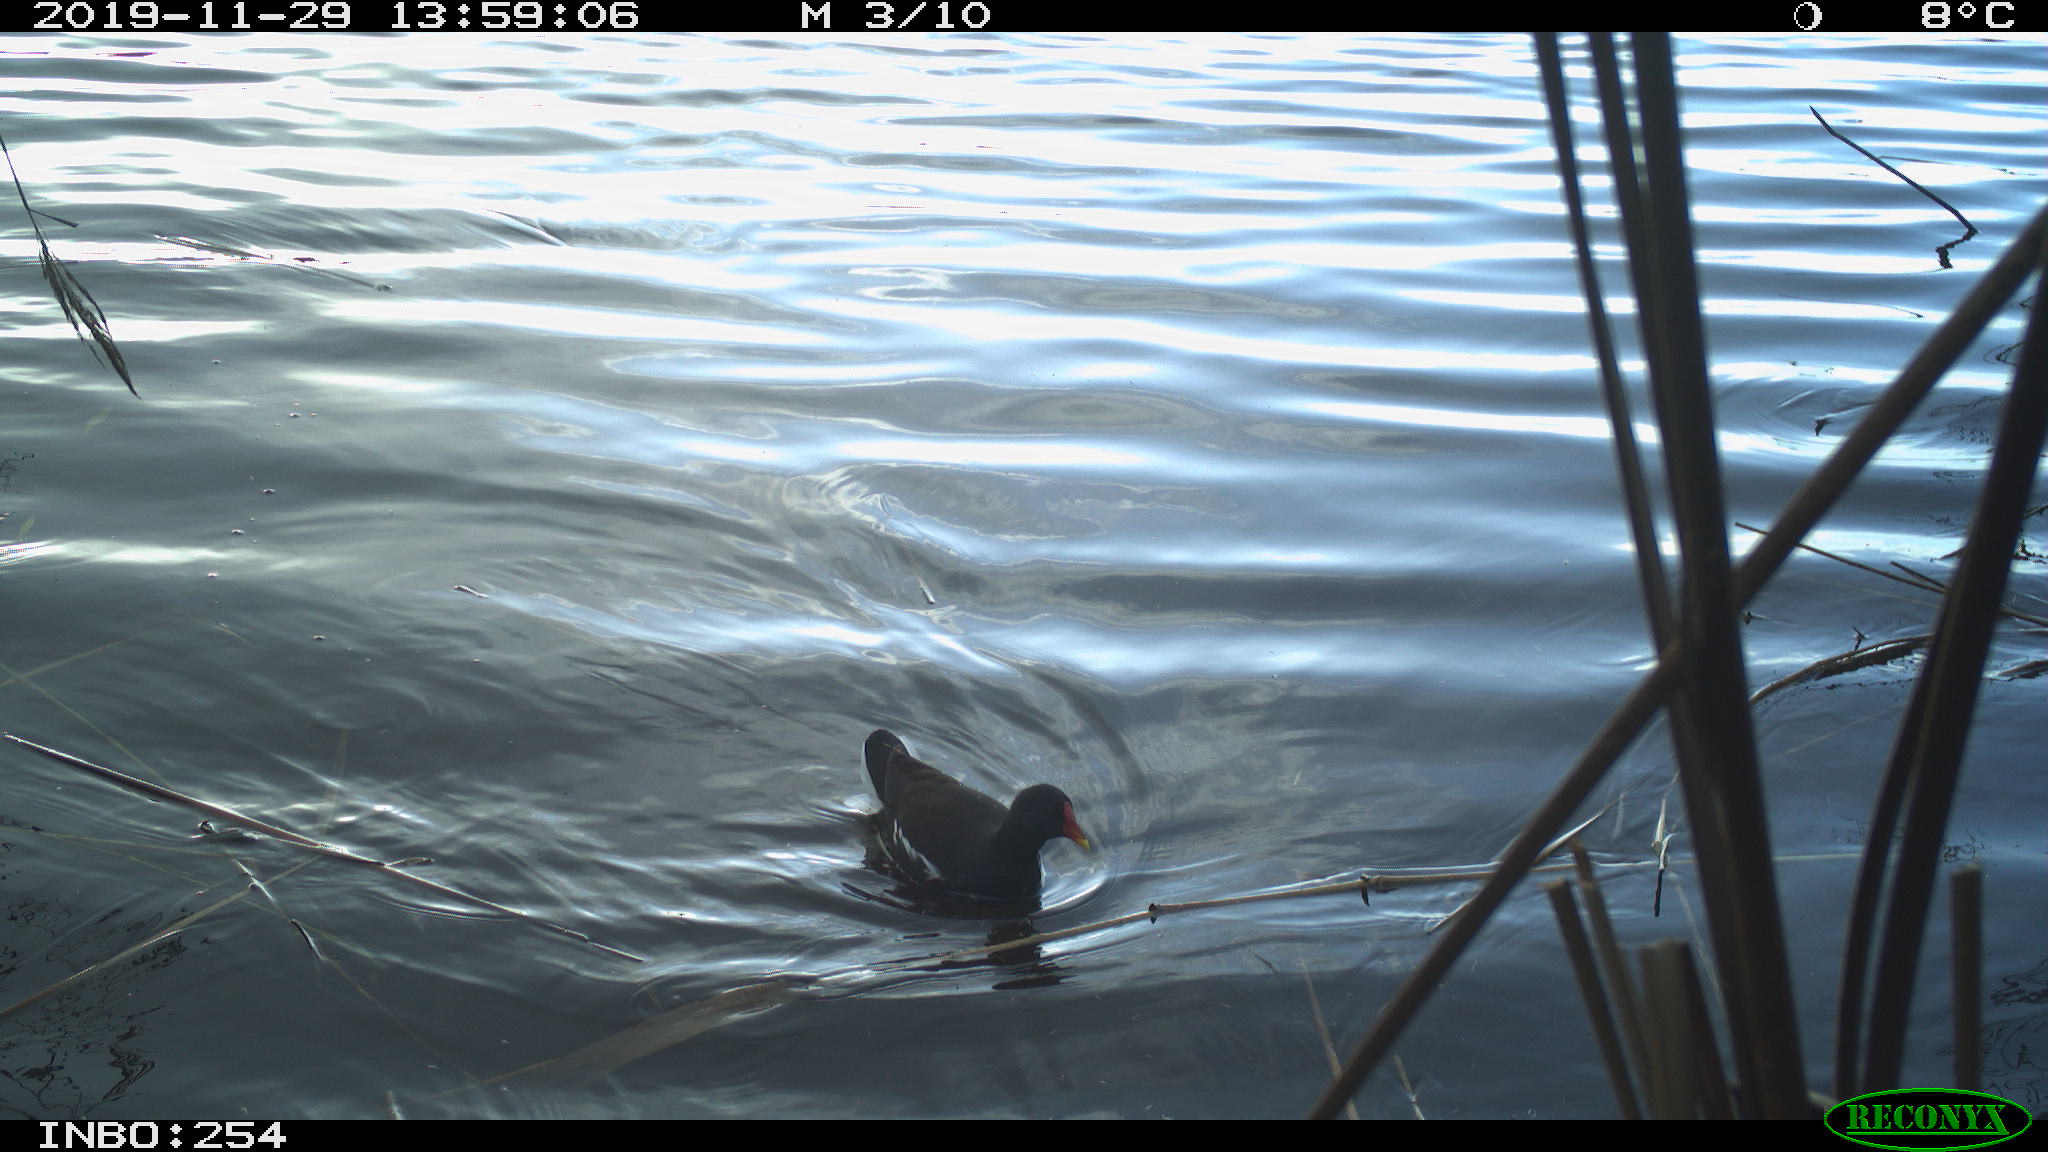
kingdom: Animalia
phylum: Chordata
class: Aves
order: Gruiformes
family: Rallidae
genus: Gallinula
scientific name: Gallinula chloropus
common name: Common moorhen
